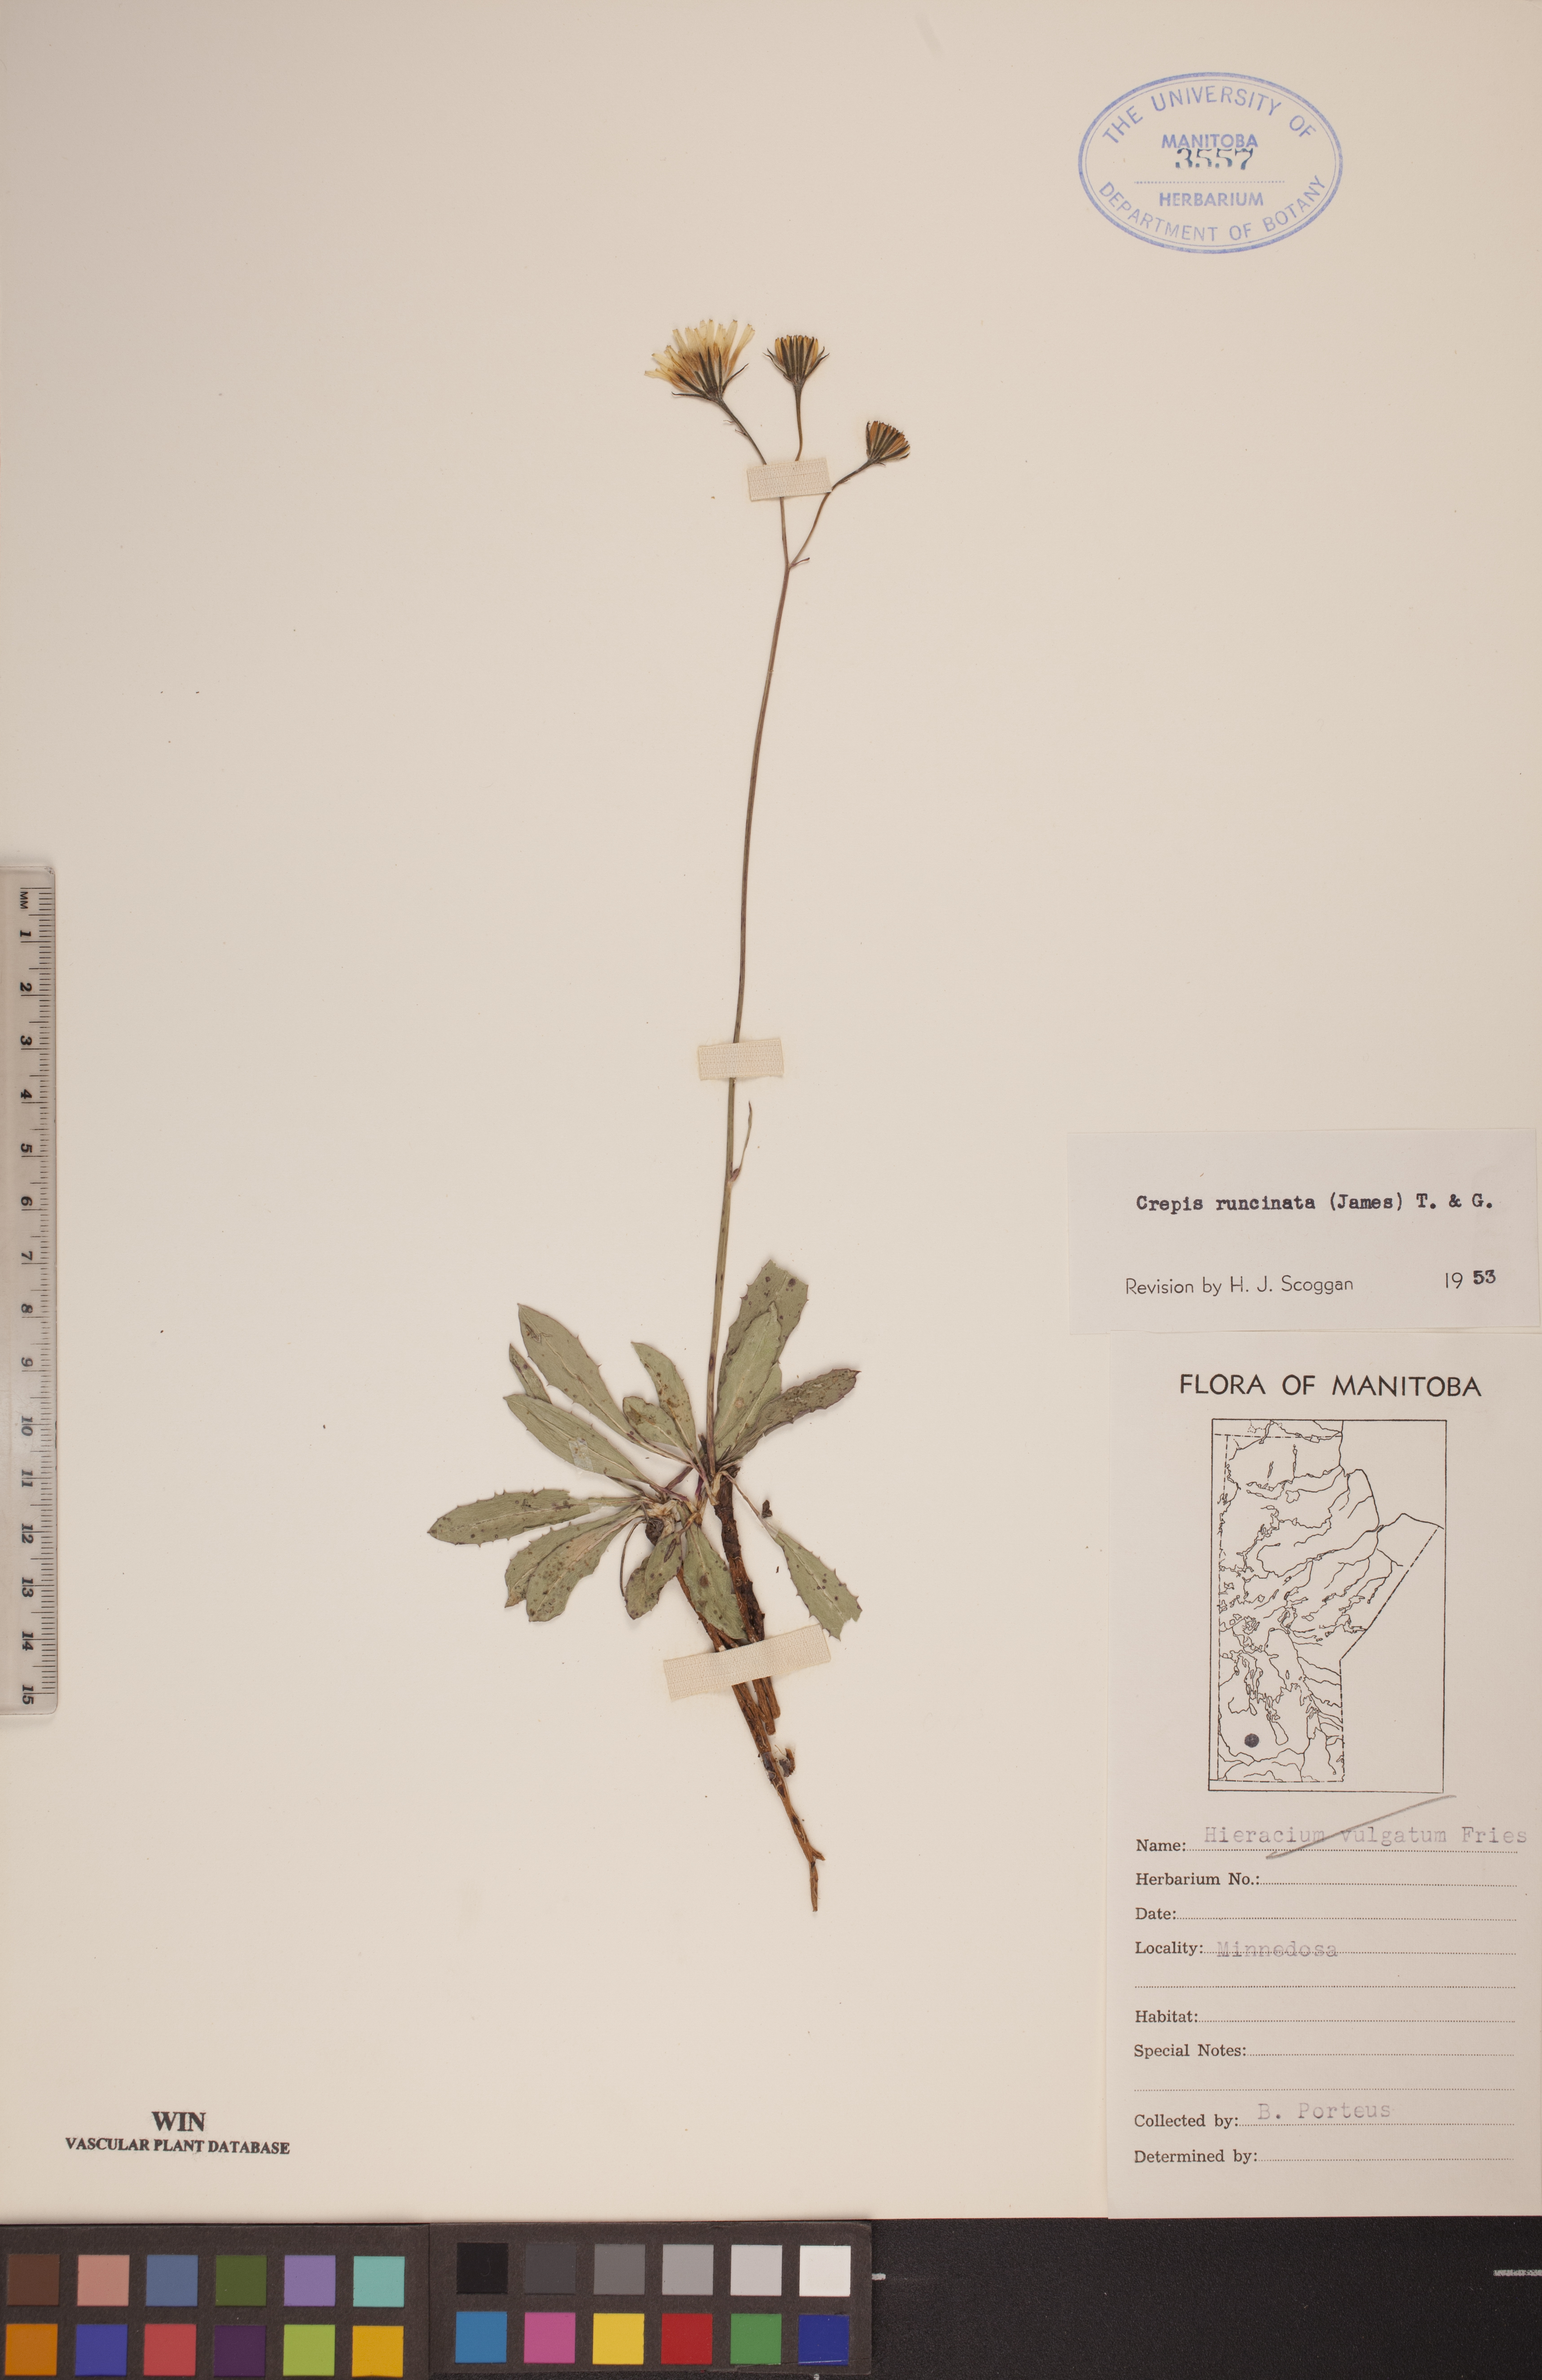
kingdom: Plantae
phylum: Tracheophyta
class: Magnoliopsida
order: Asterales
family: Asteraceae
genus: Crepis
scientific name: Crepis runcinata
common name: Dandelion hawksbeard
